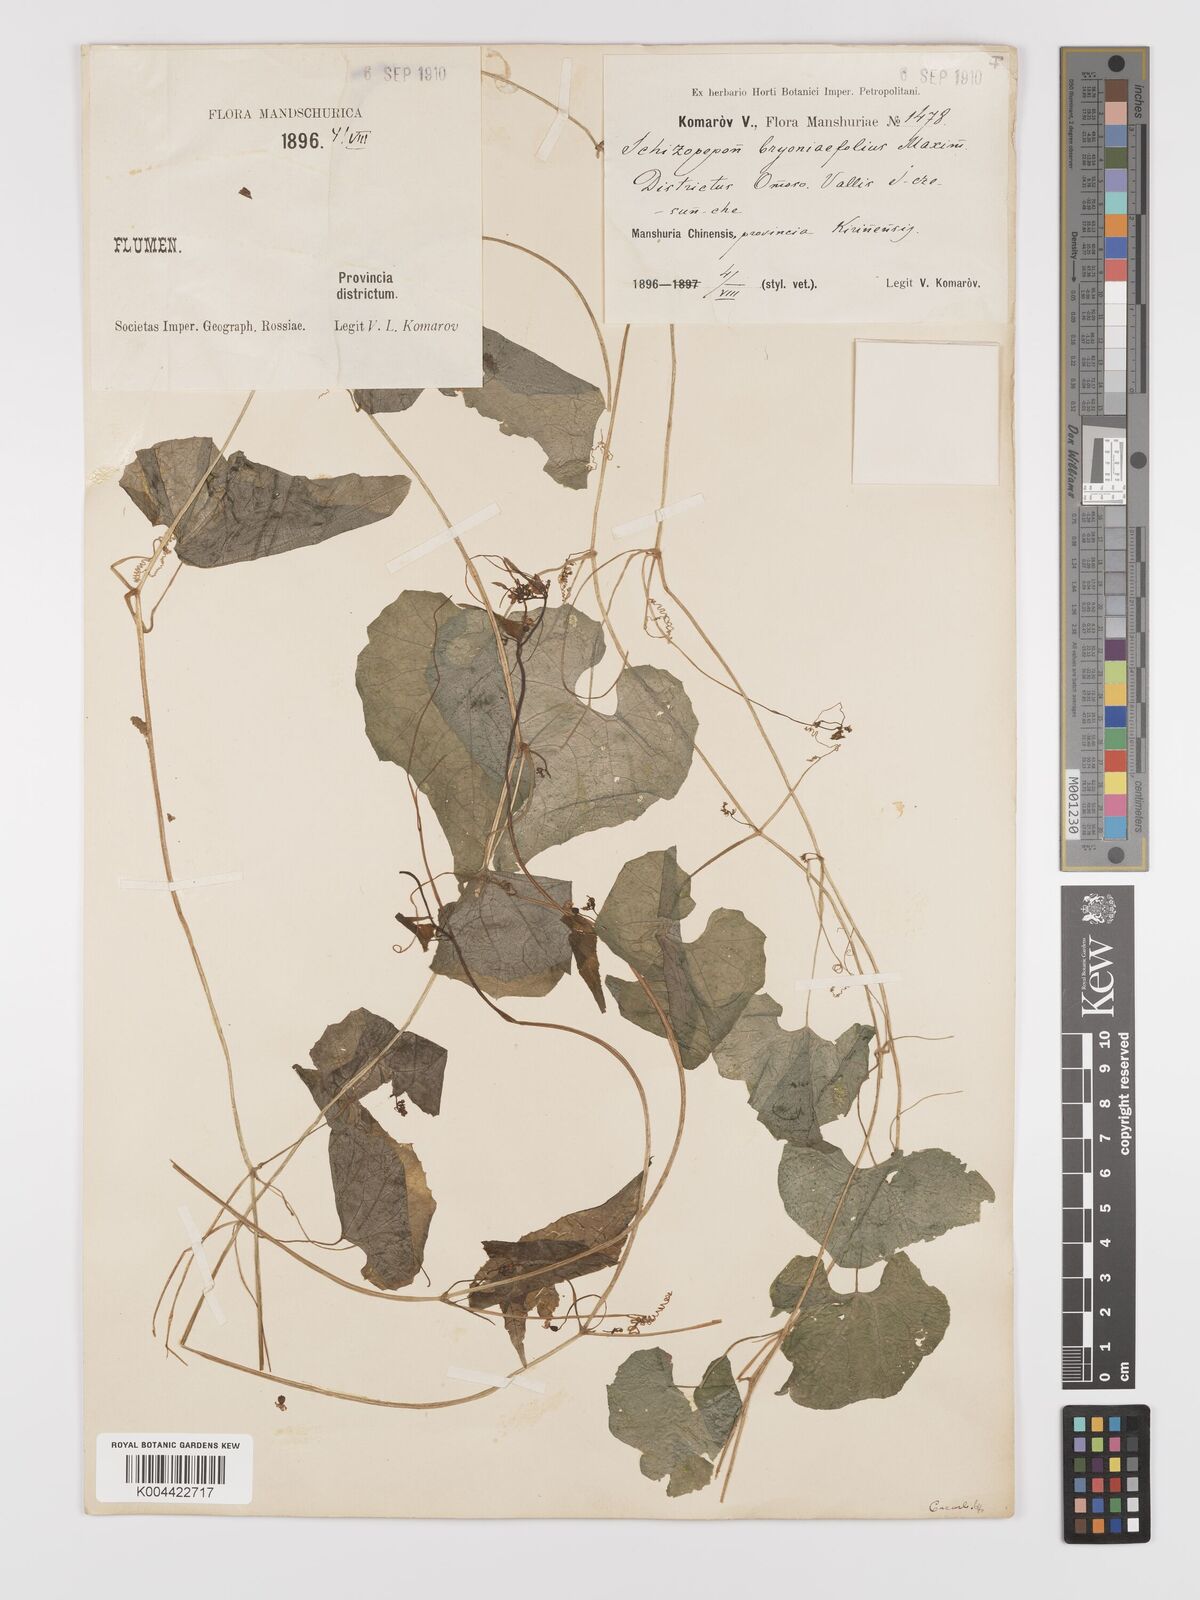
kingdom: Plantae
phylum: Tracheophyta
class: Magnoliopsida
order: Cucurbitales
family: Cucurbitaceae
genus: Schizopepon
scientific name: Schizopepon bryoniifolius
